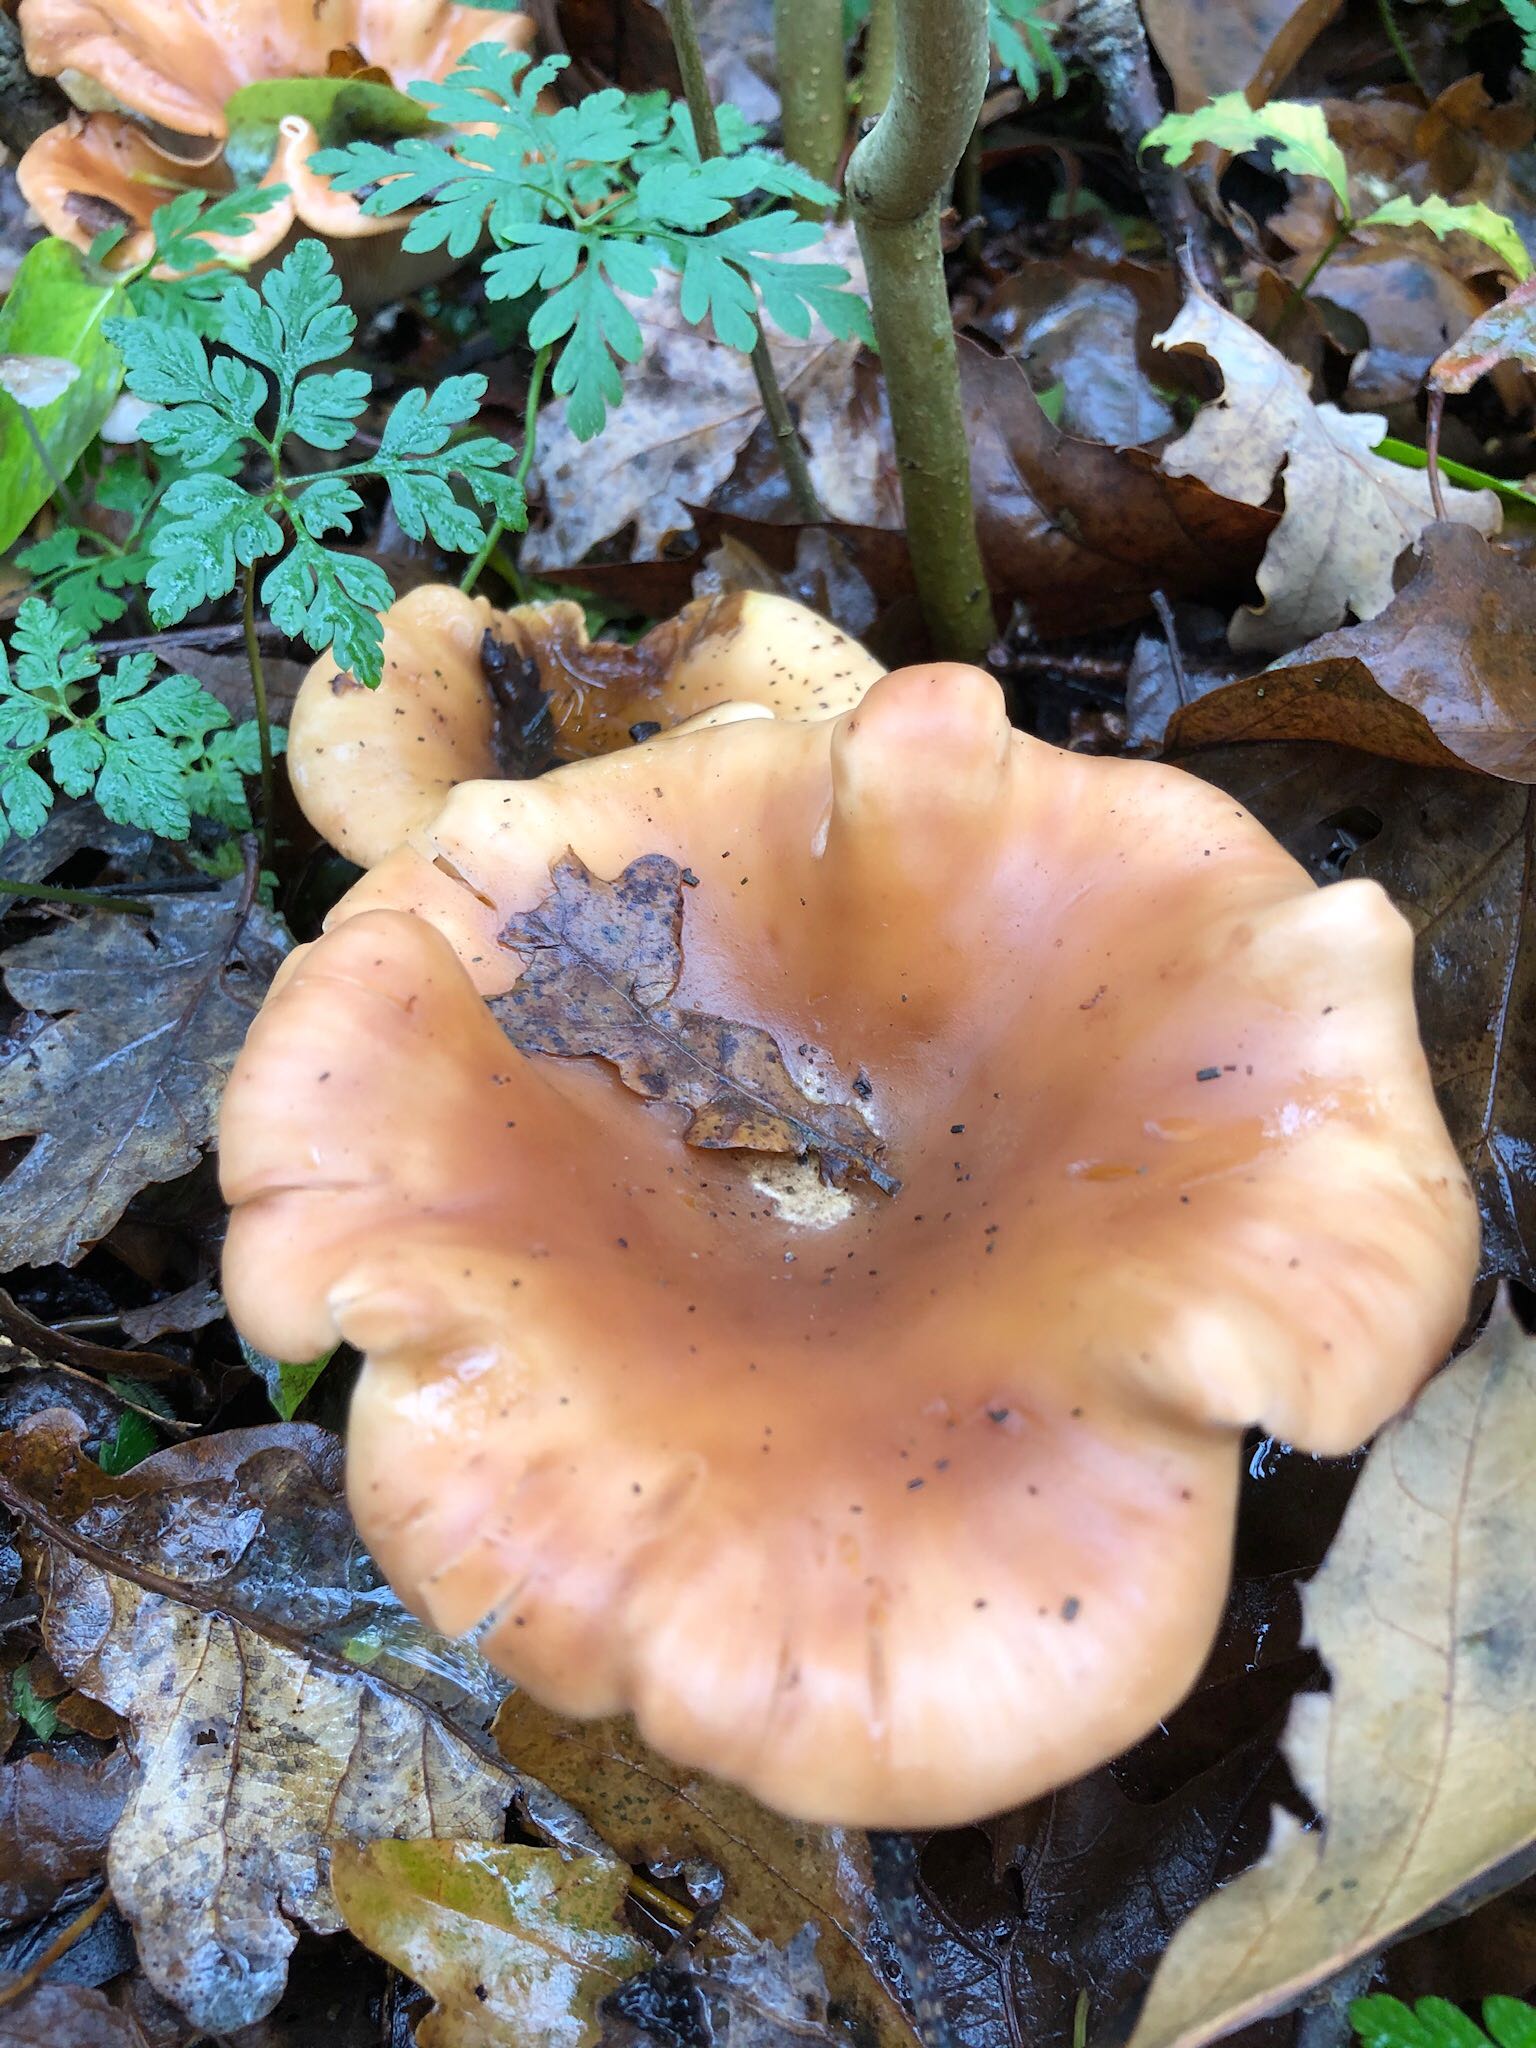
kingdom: Fungi
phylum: Basidiomycota
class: Agaricomycetes
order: Agaricales
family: Tricholomataceae
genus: Paralepista
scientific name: Paralepista flaccida
